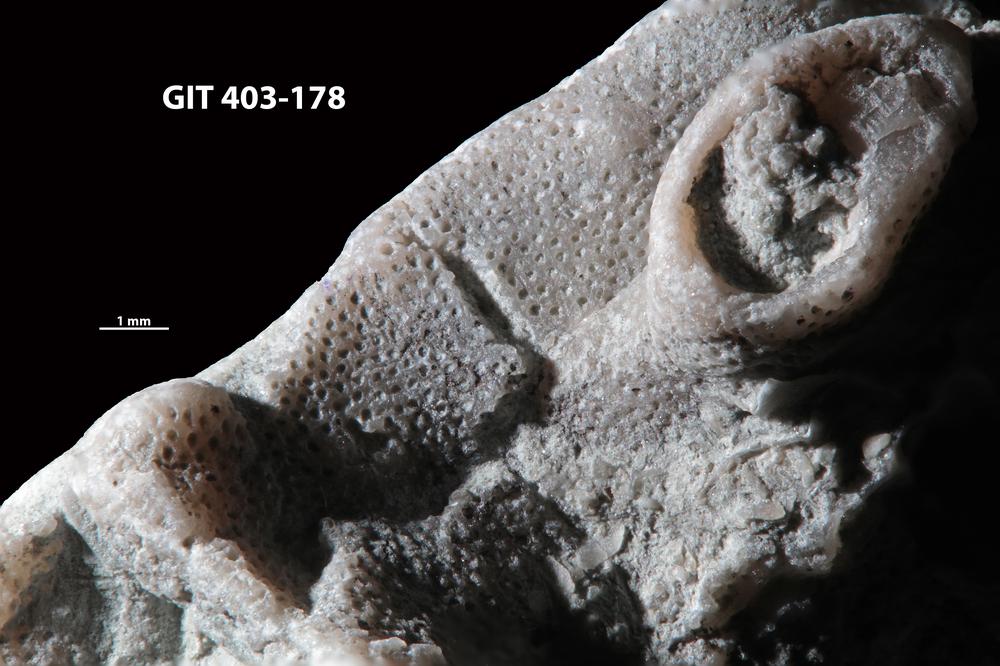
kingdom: Animalia
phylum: Bryozoa
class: Stenolaemata
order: Cystoporida
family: Fistuliporidae
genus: Fistulipora
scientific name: Fistulipora przhidolensis
